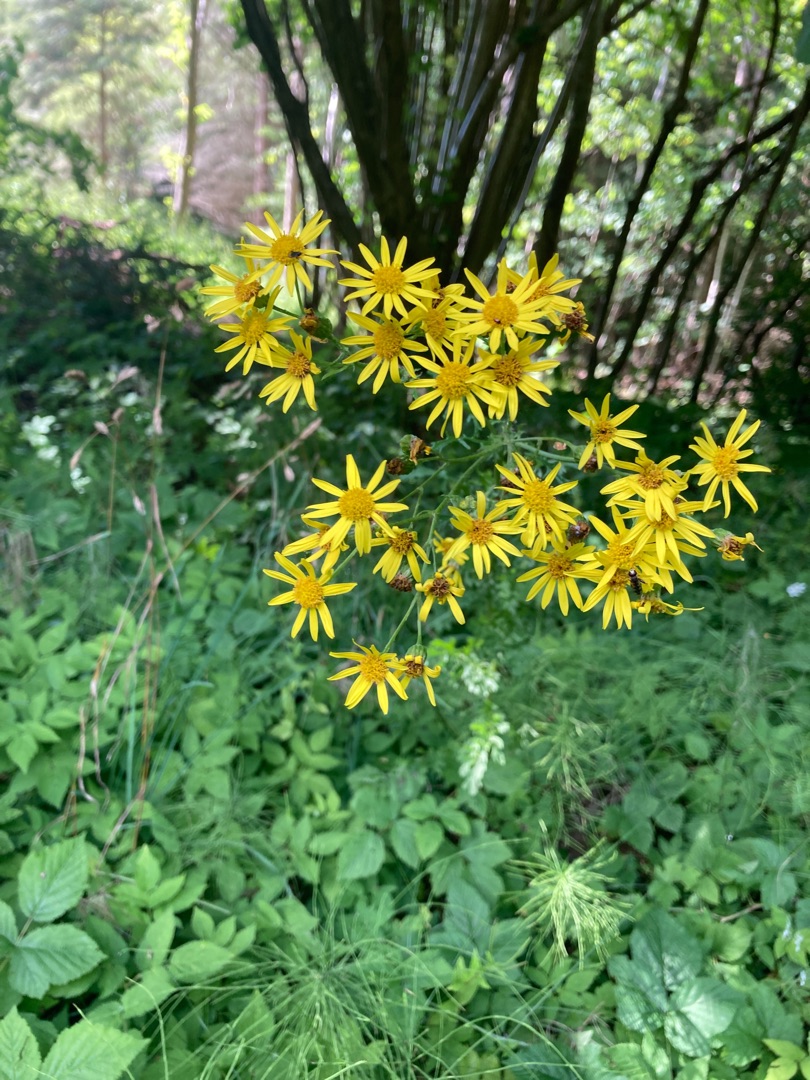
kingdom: Plantae
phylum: Tracheophyta
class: Magnoliopsida
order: Asterales
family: Asteraceae
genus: Jacobaea
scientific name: Jacobaea vulgaris
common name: Eng-brandbæger
